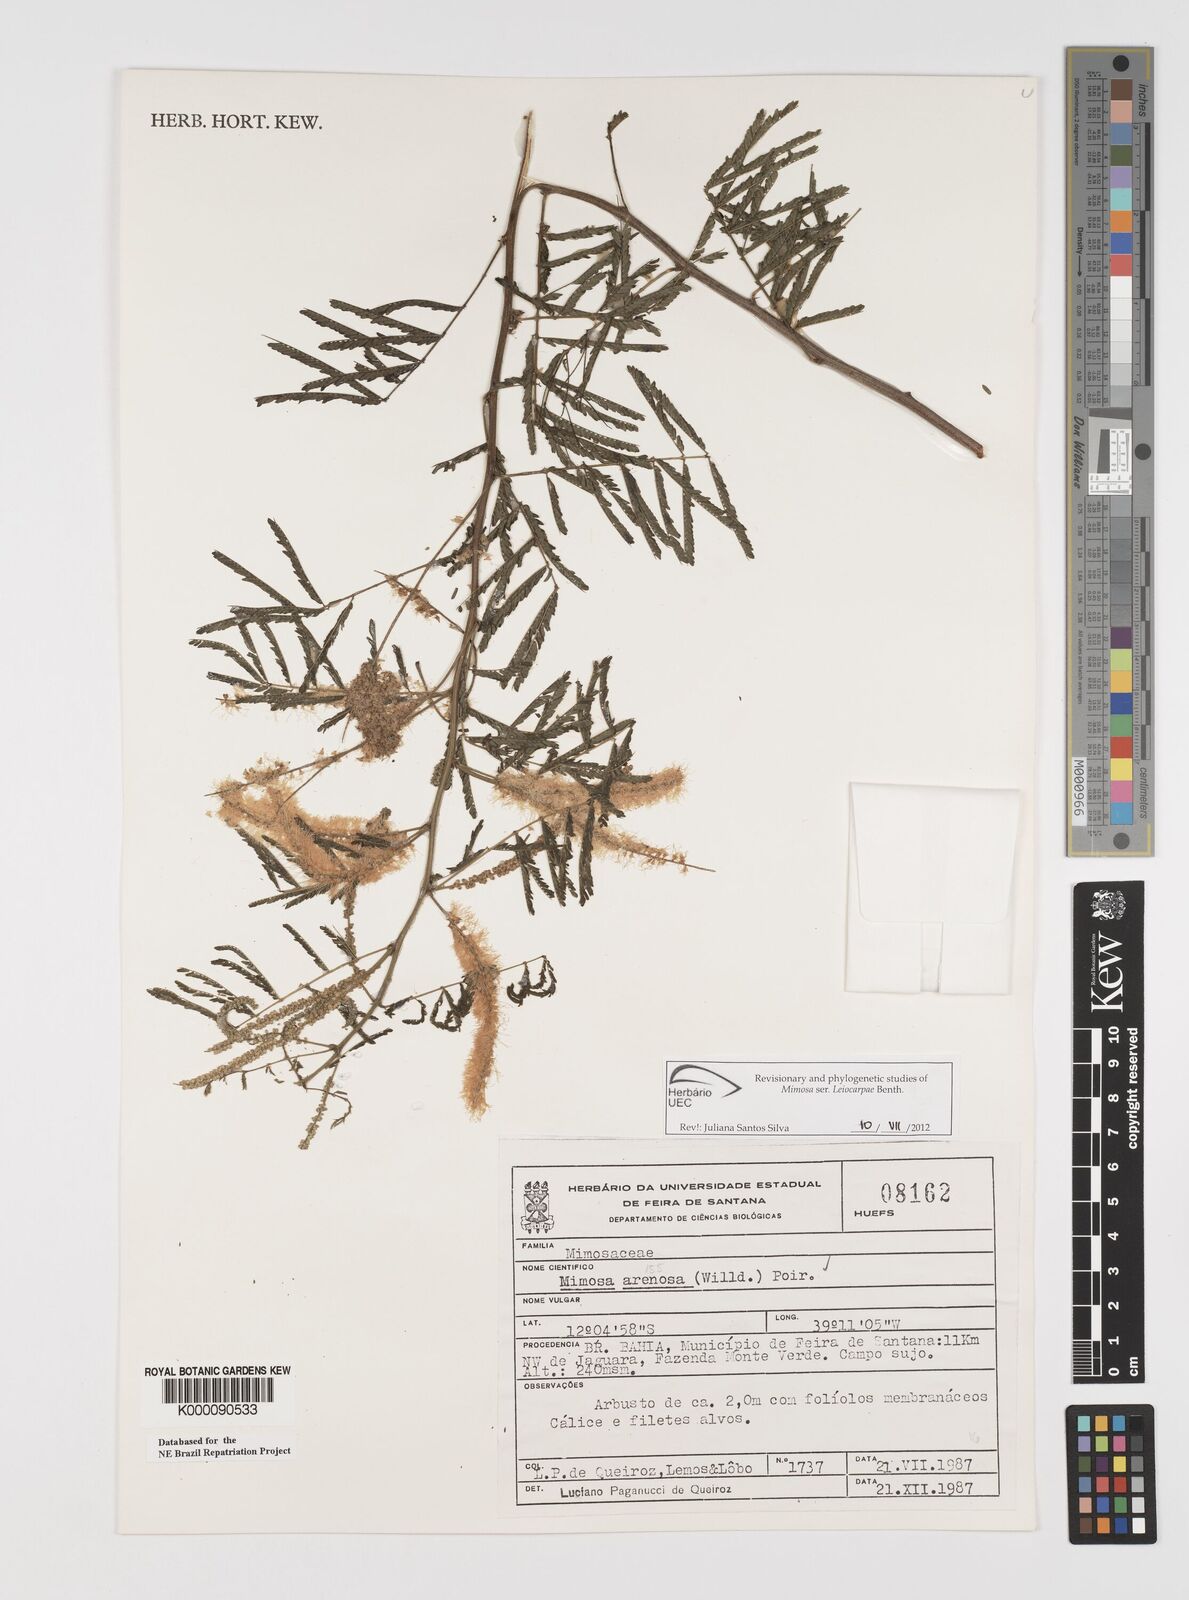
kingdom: Plantae
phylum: Tracheophyta
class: Magnoliopsida
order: Fabales
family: Fabaceae
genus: Mimosa
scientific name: Mimosa arenosa
